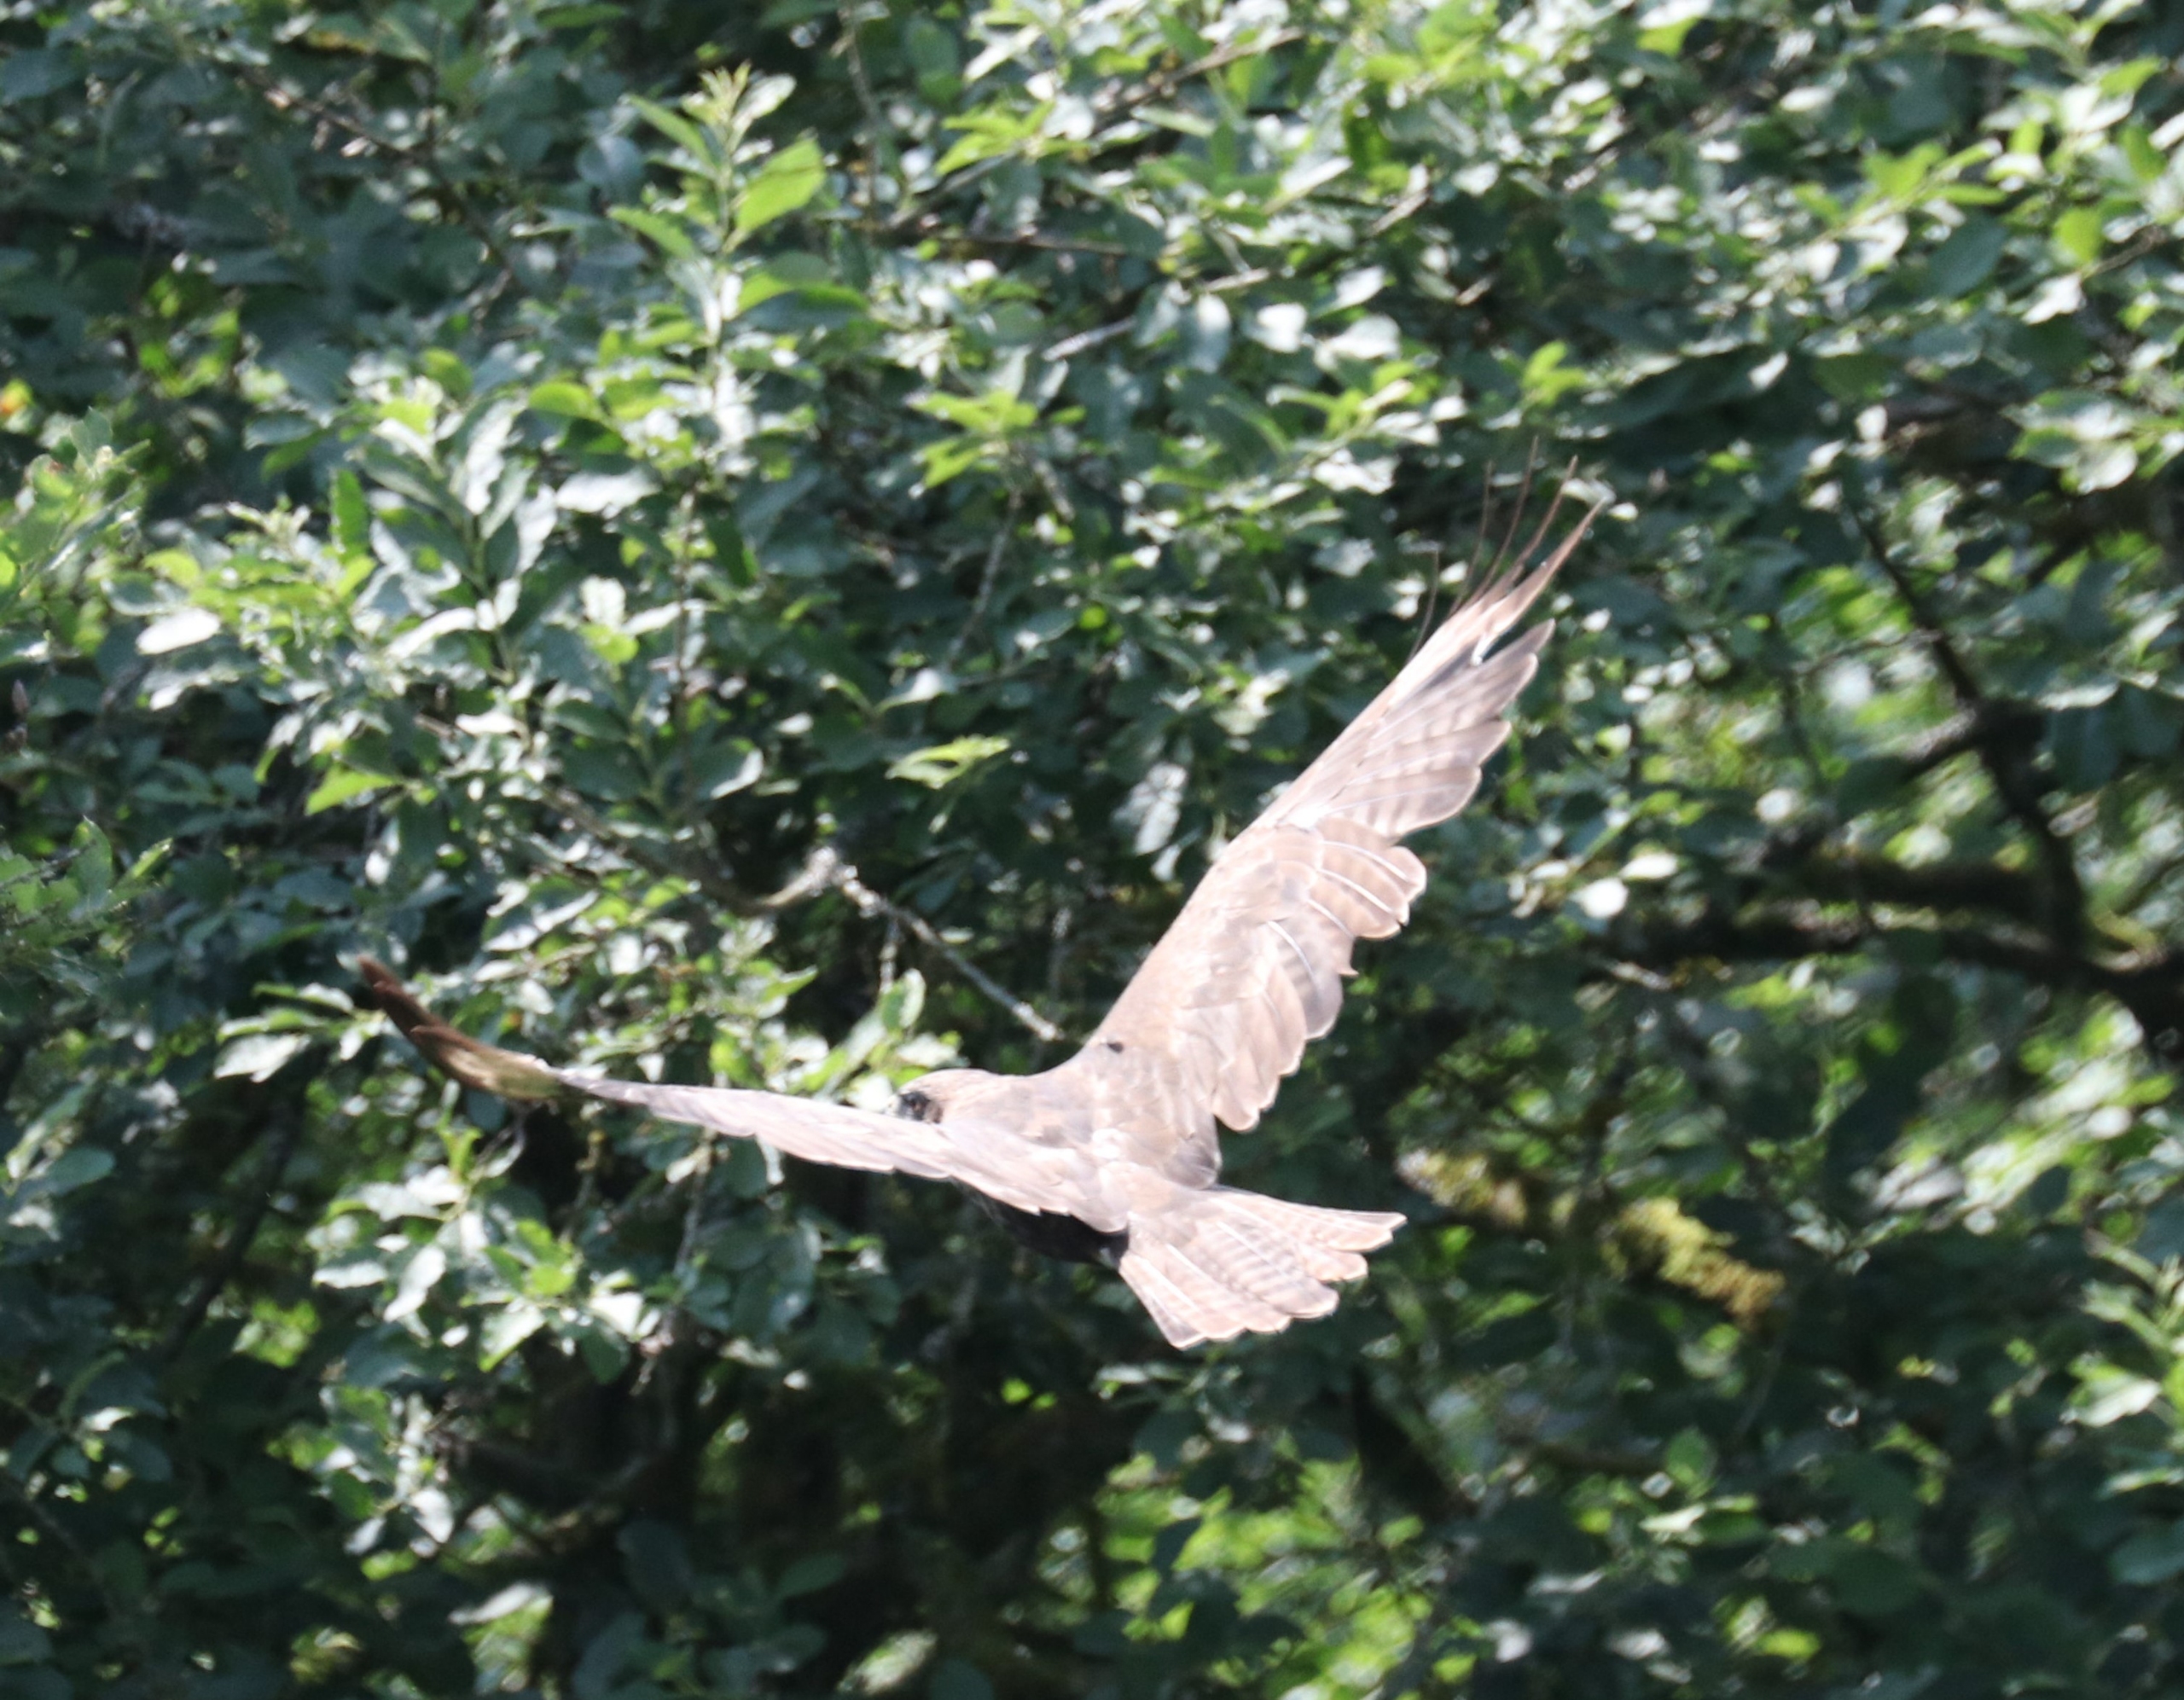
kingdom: Animalia
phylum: Chordata
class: Aves
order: Accipitriformes
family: Accipitridae
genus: Buteo
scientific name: Buteo buteo
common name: Musvåge
